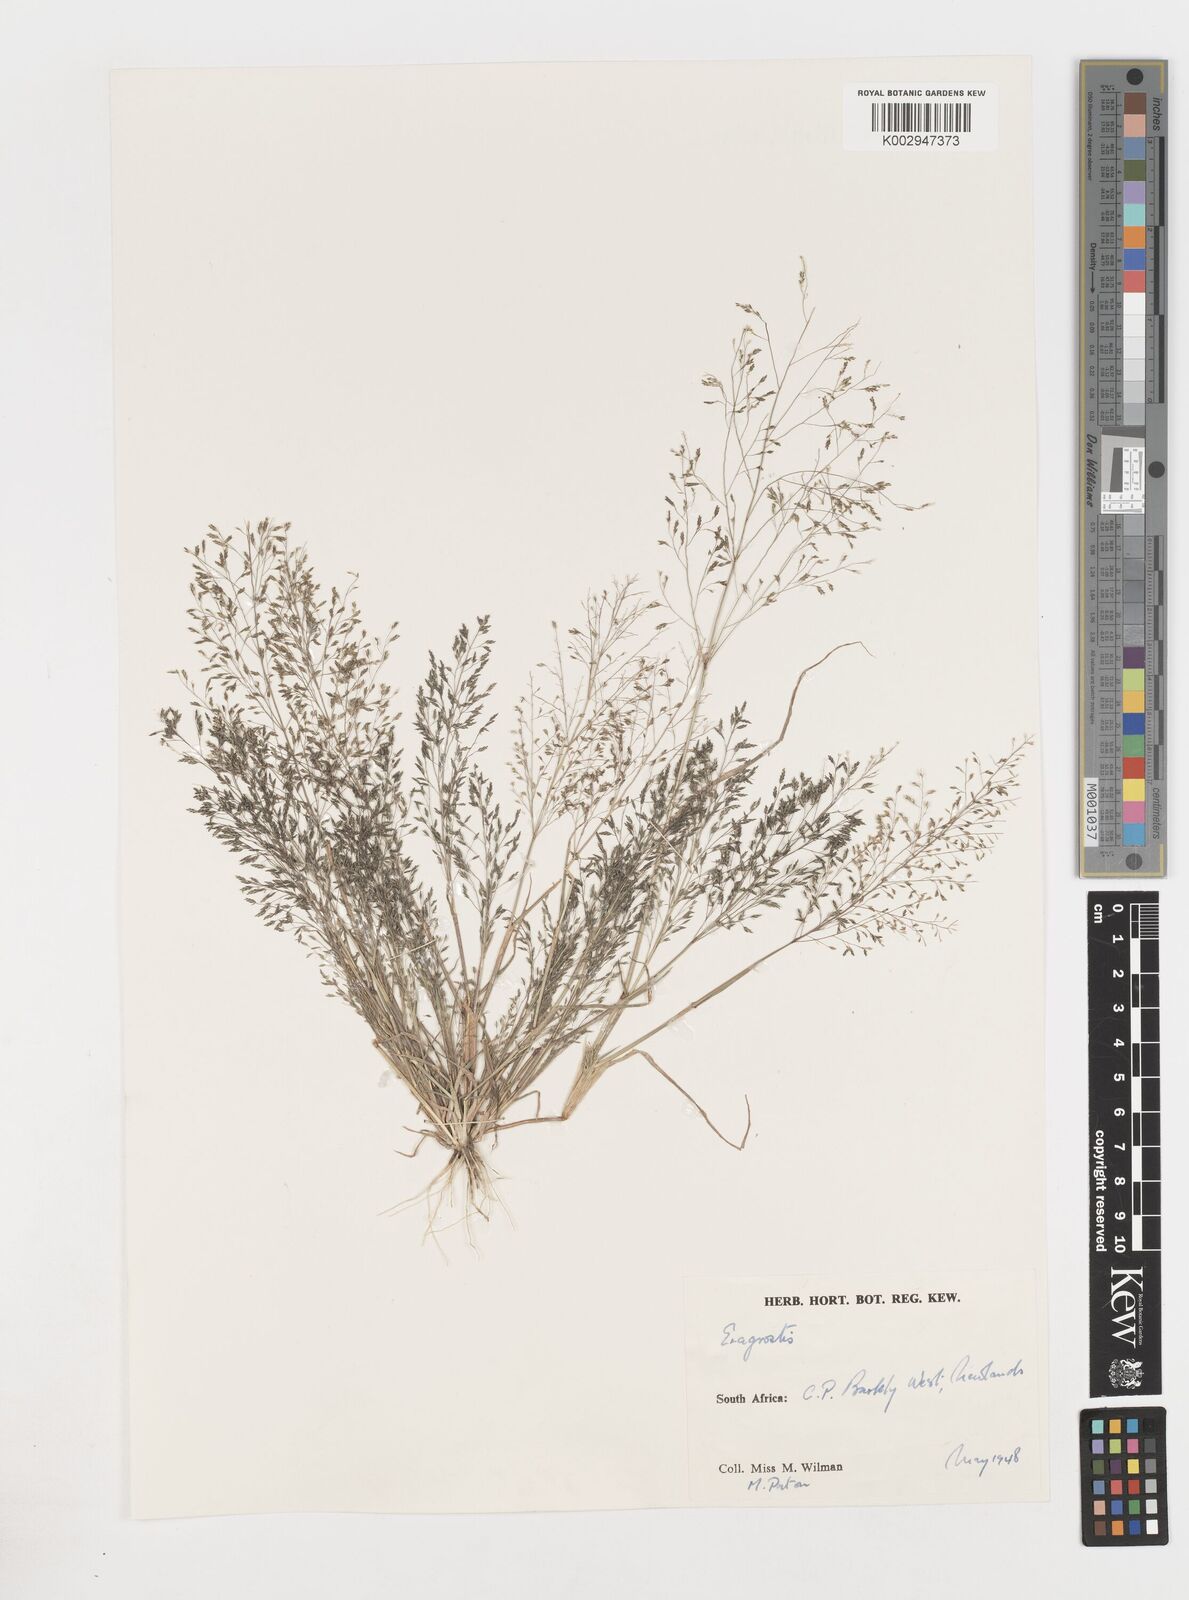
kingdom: Plantae
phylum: Tracheophyta
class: Liliopsida
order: Poales
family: Poaceae
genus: Eragrostis
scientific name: Eragrostis
